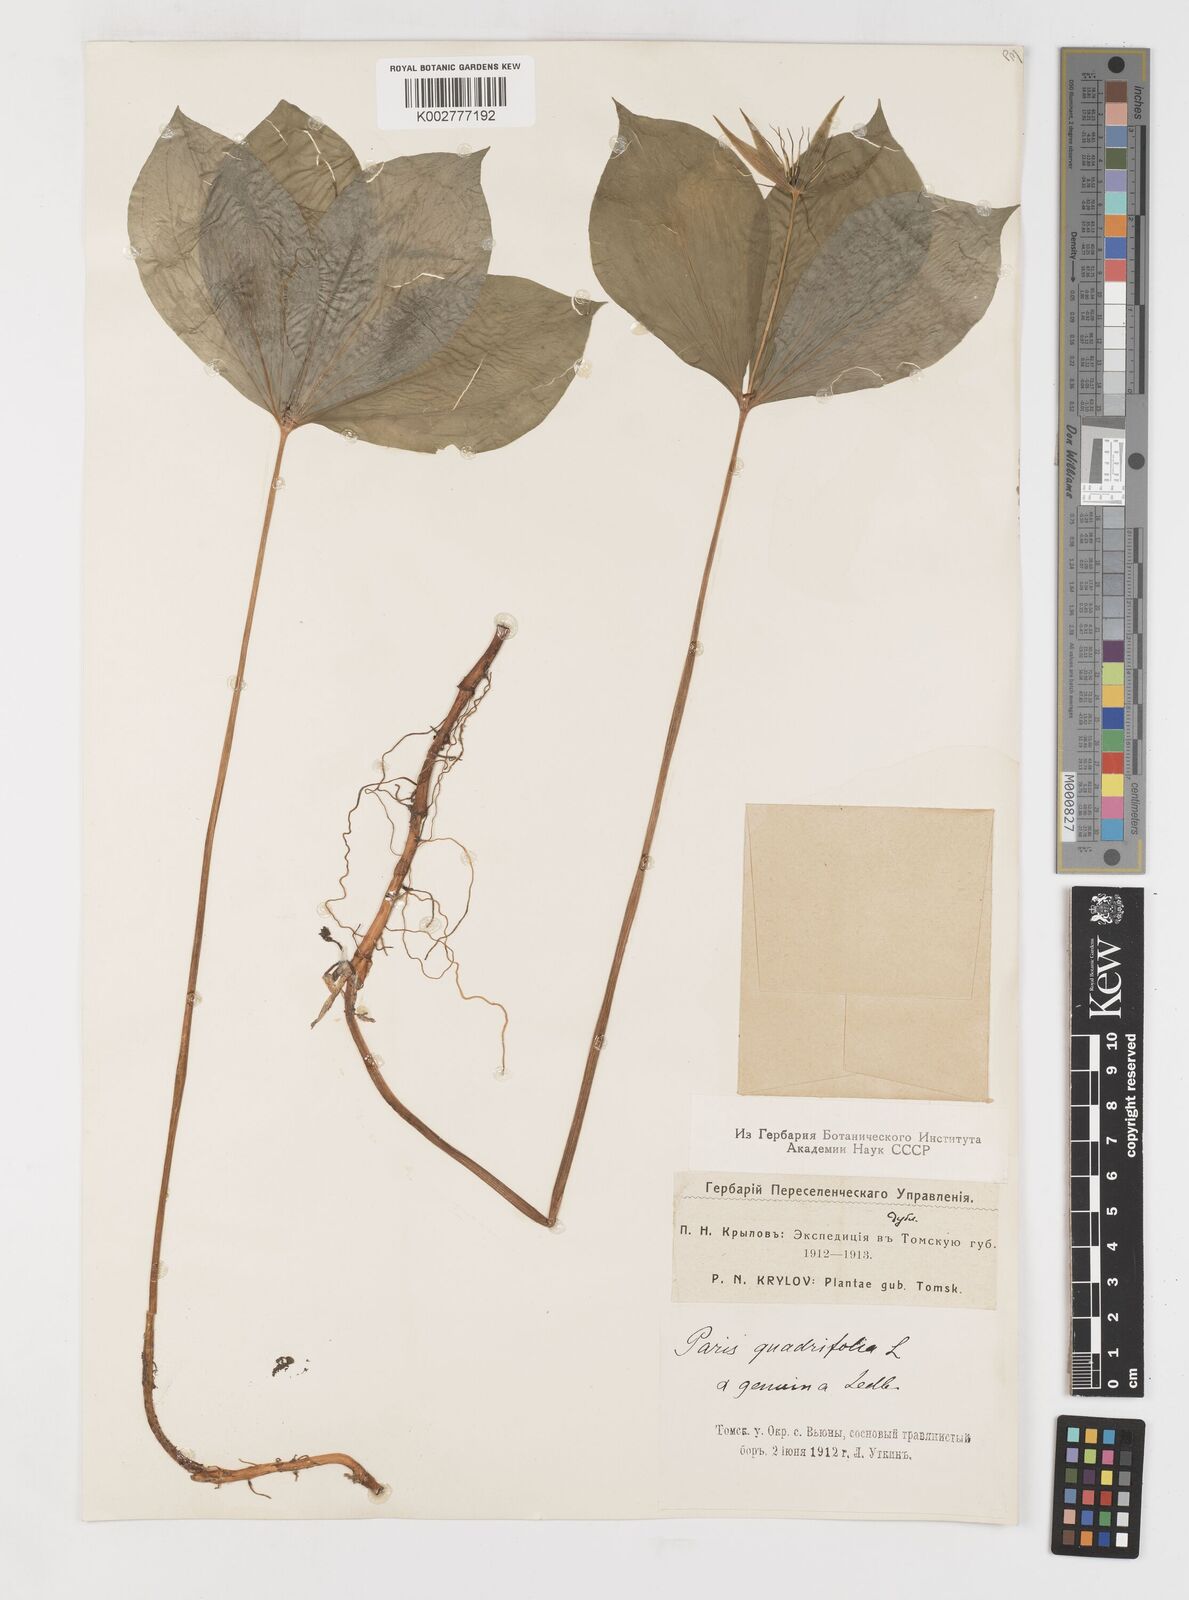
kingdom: Plantae
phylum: Tracheophyta
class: Liliopsida
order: Liliales
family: Melanthiaceae
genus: Paris
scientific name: Paris quadrifolia
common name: Herb-paris
